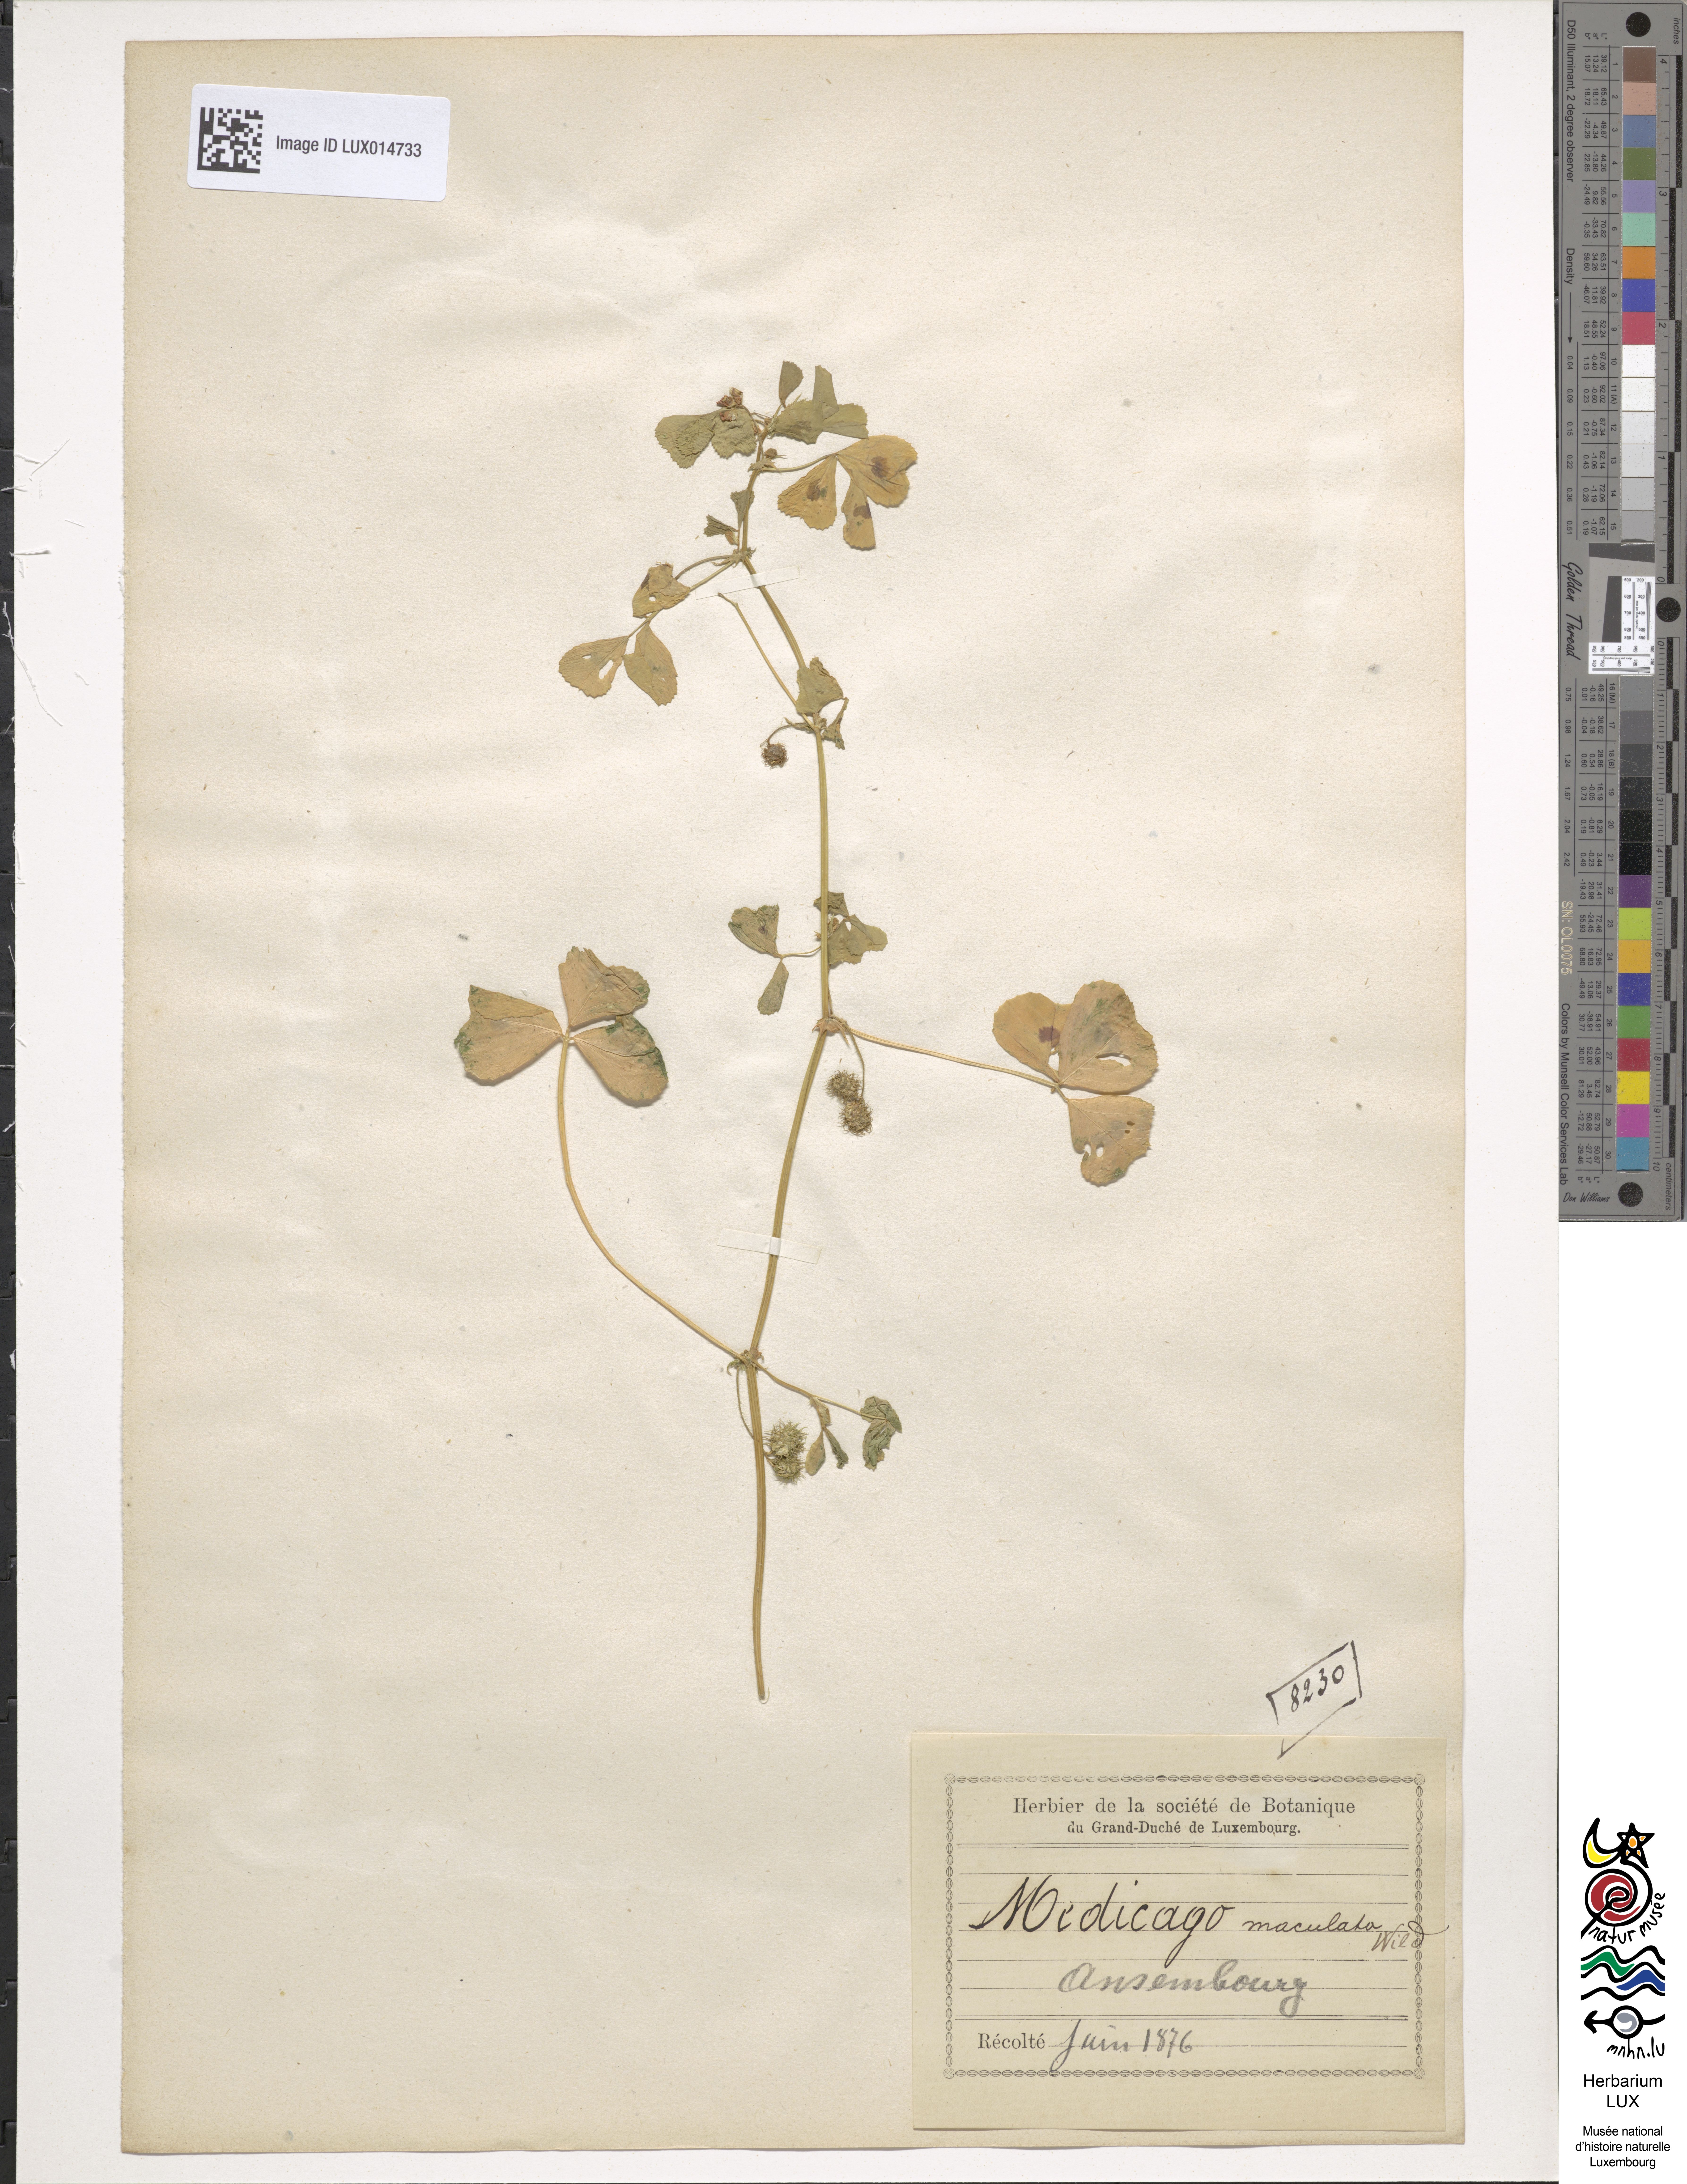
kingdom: Plantae
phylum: Tracheophyta
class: Magnoliopsida
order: Fabales
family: Fabaceae
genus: Medicago
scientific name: Medicago arabica
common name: Spotted medick
